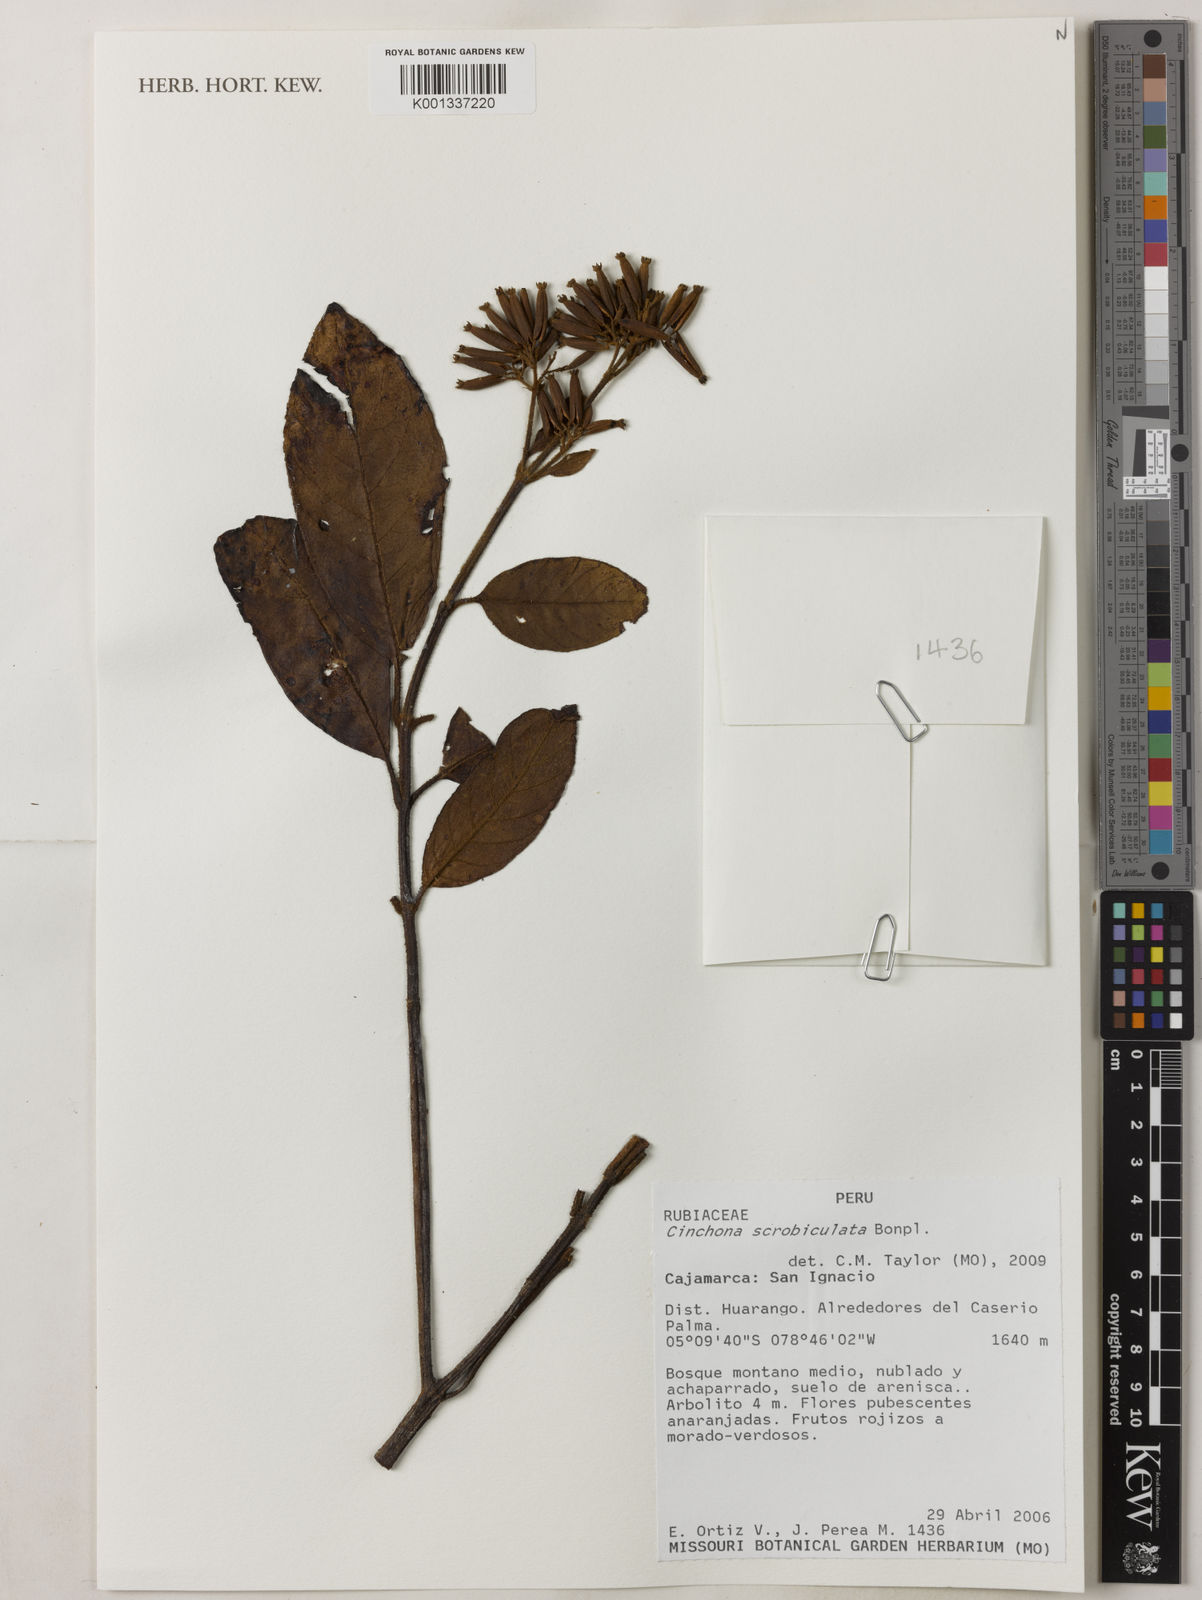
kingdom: Plantae
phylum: Tracheophyta
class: Magnoliopsida
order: Gentianales
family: Rubiaceae
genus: Cinchona
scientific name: Cinchona scrobiculata
